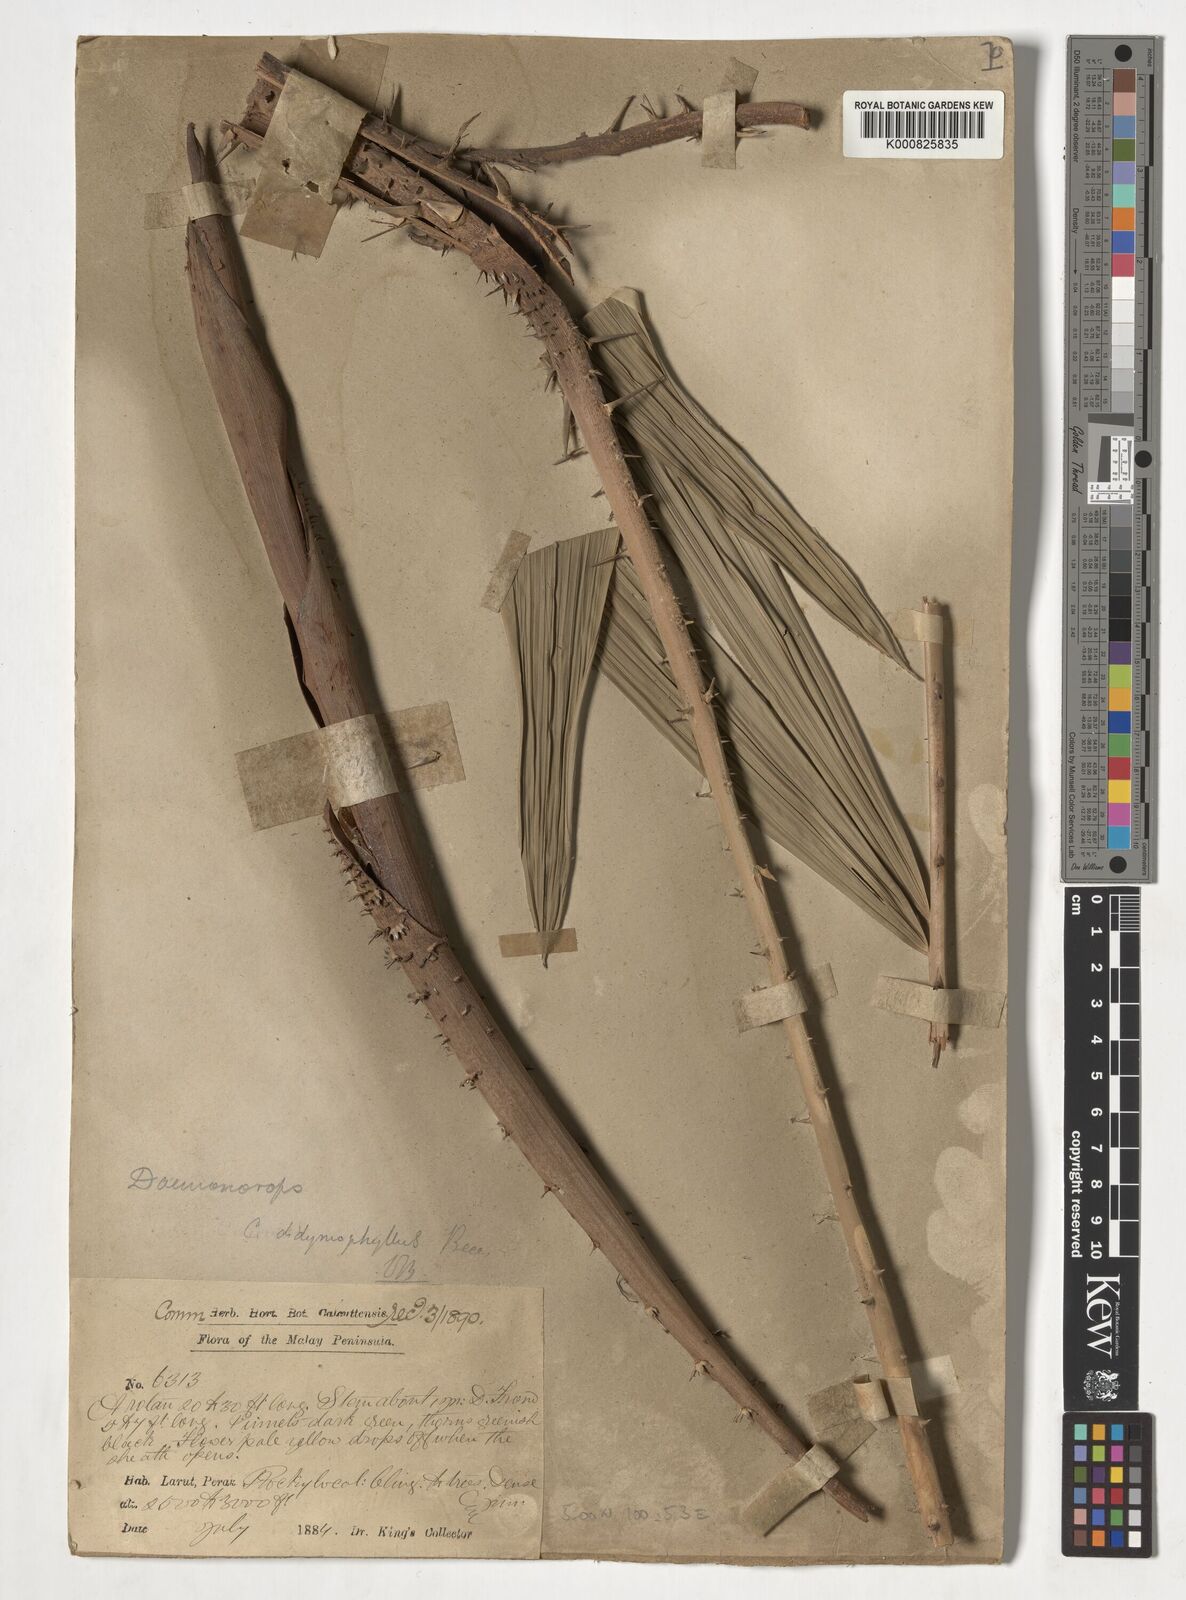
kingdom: Plantae
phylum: Tracheophyta
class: Liliopsida
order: Arecales
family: Arecaceae
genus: Calamus
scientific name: Calamus gracilipes
